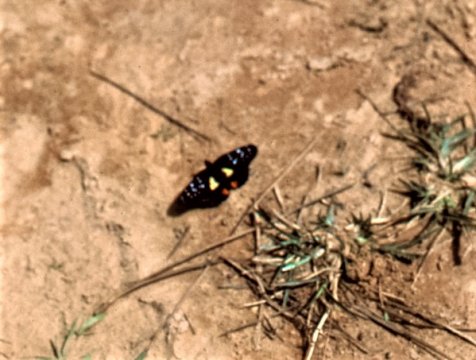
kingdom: Animalia
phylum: Arthropoda
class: Insecta
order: Lepidoptera
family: Nymphalidae
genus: Chlosyne
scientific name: Chlosyne erodyle
